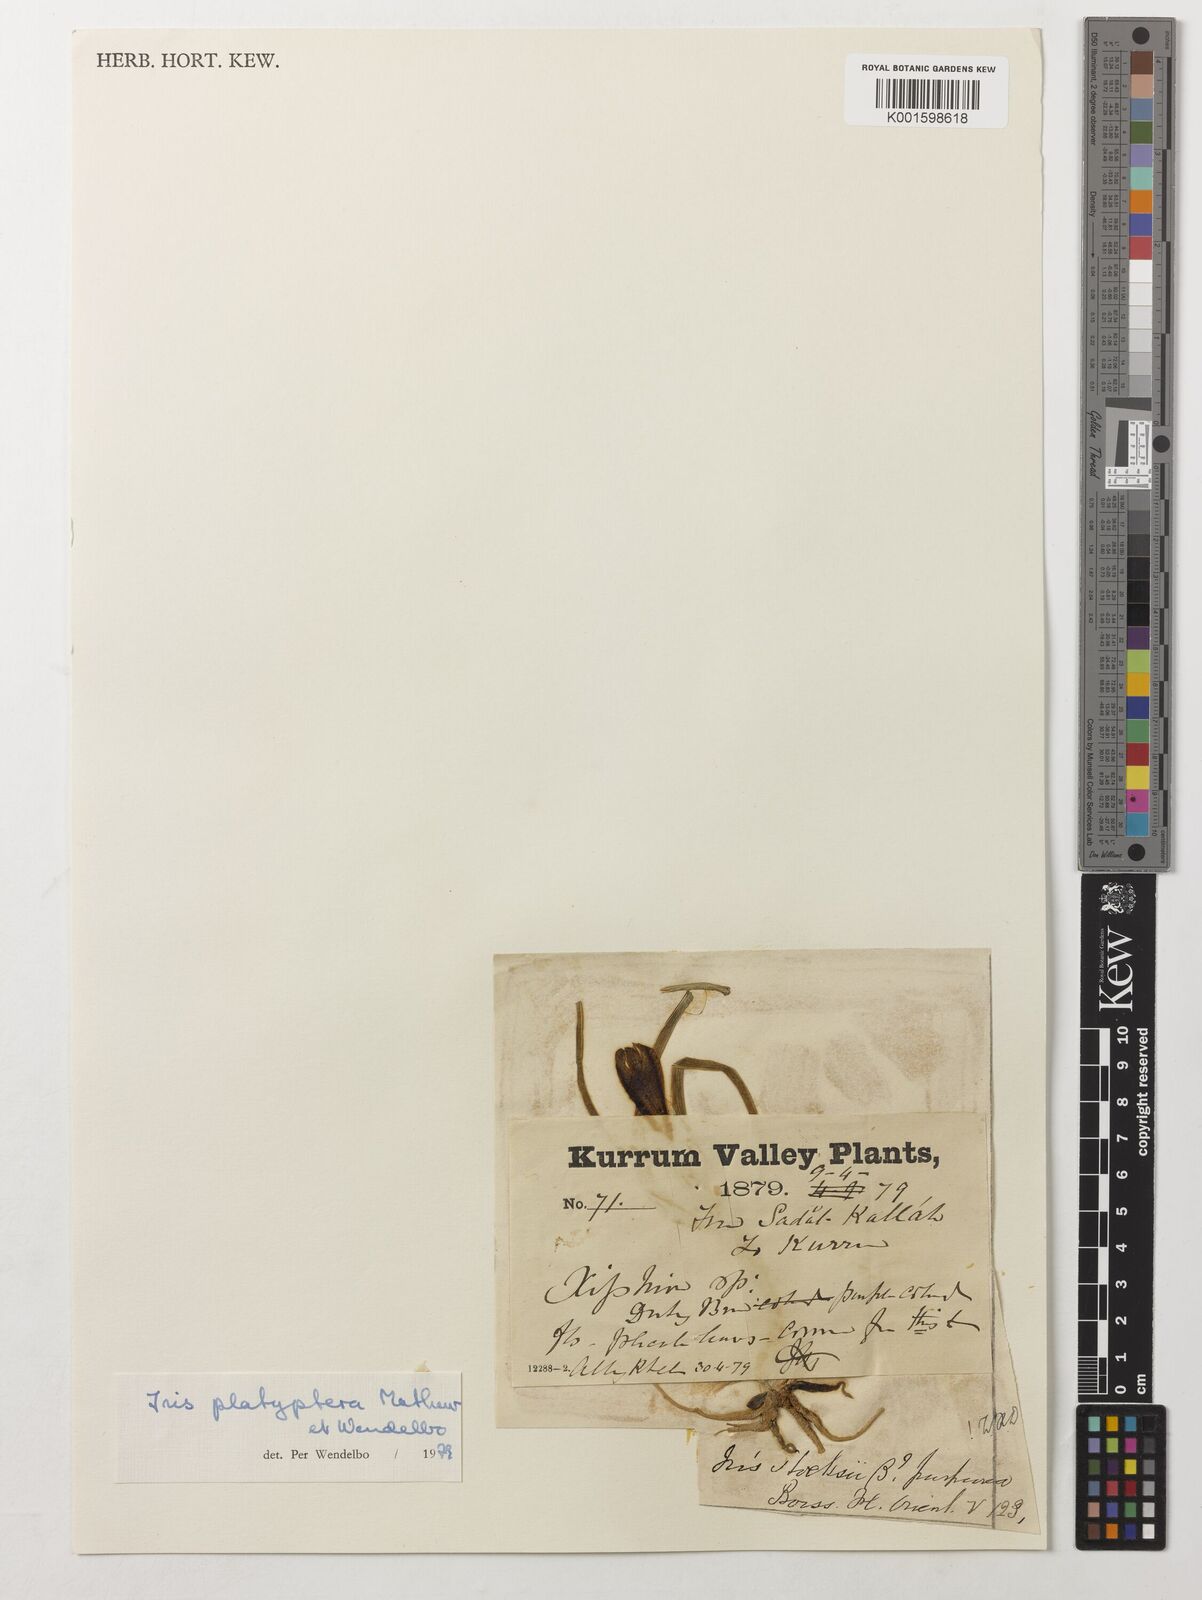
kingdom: Plantae
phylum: Tracheophyta
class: Liliopsida
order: Asparagales
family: Iridaceae
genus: Iris
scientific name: Iris platyptera
